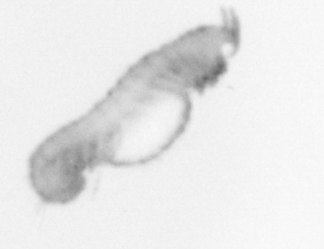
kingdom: Animalia
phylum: Annelida
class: Polychaeta
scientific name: Polychaeta
